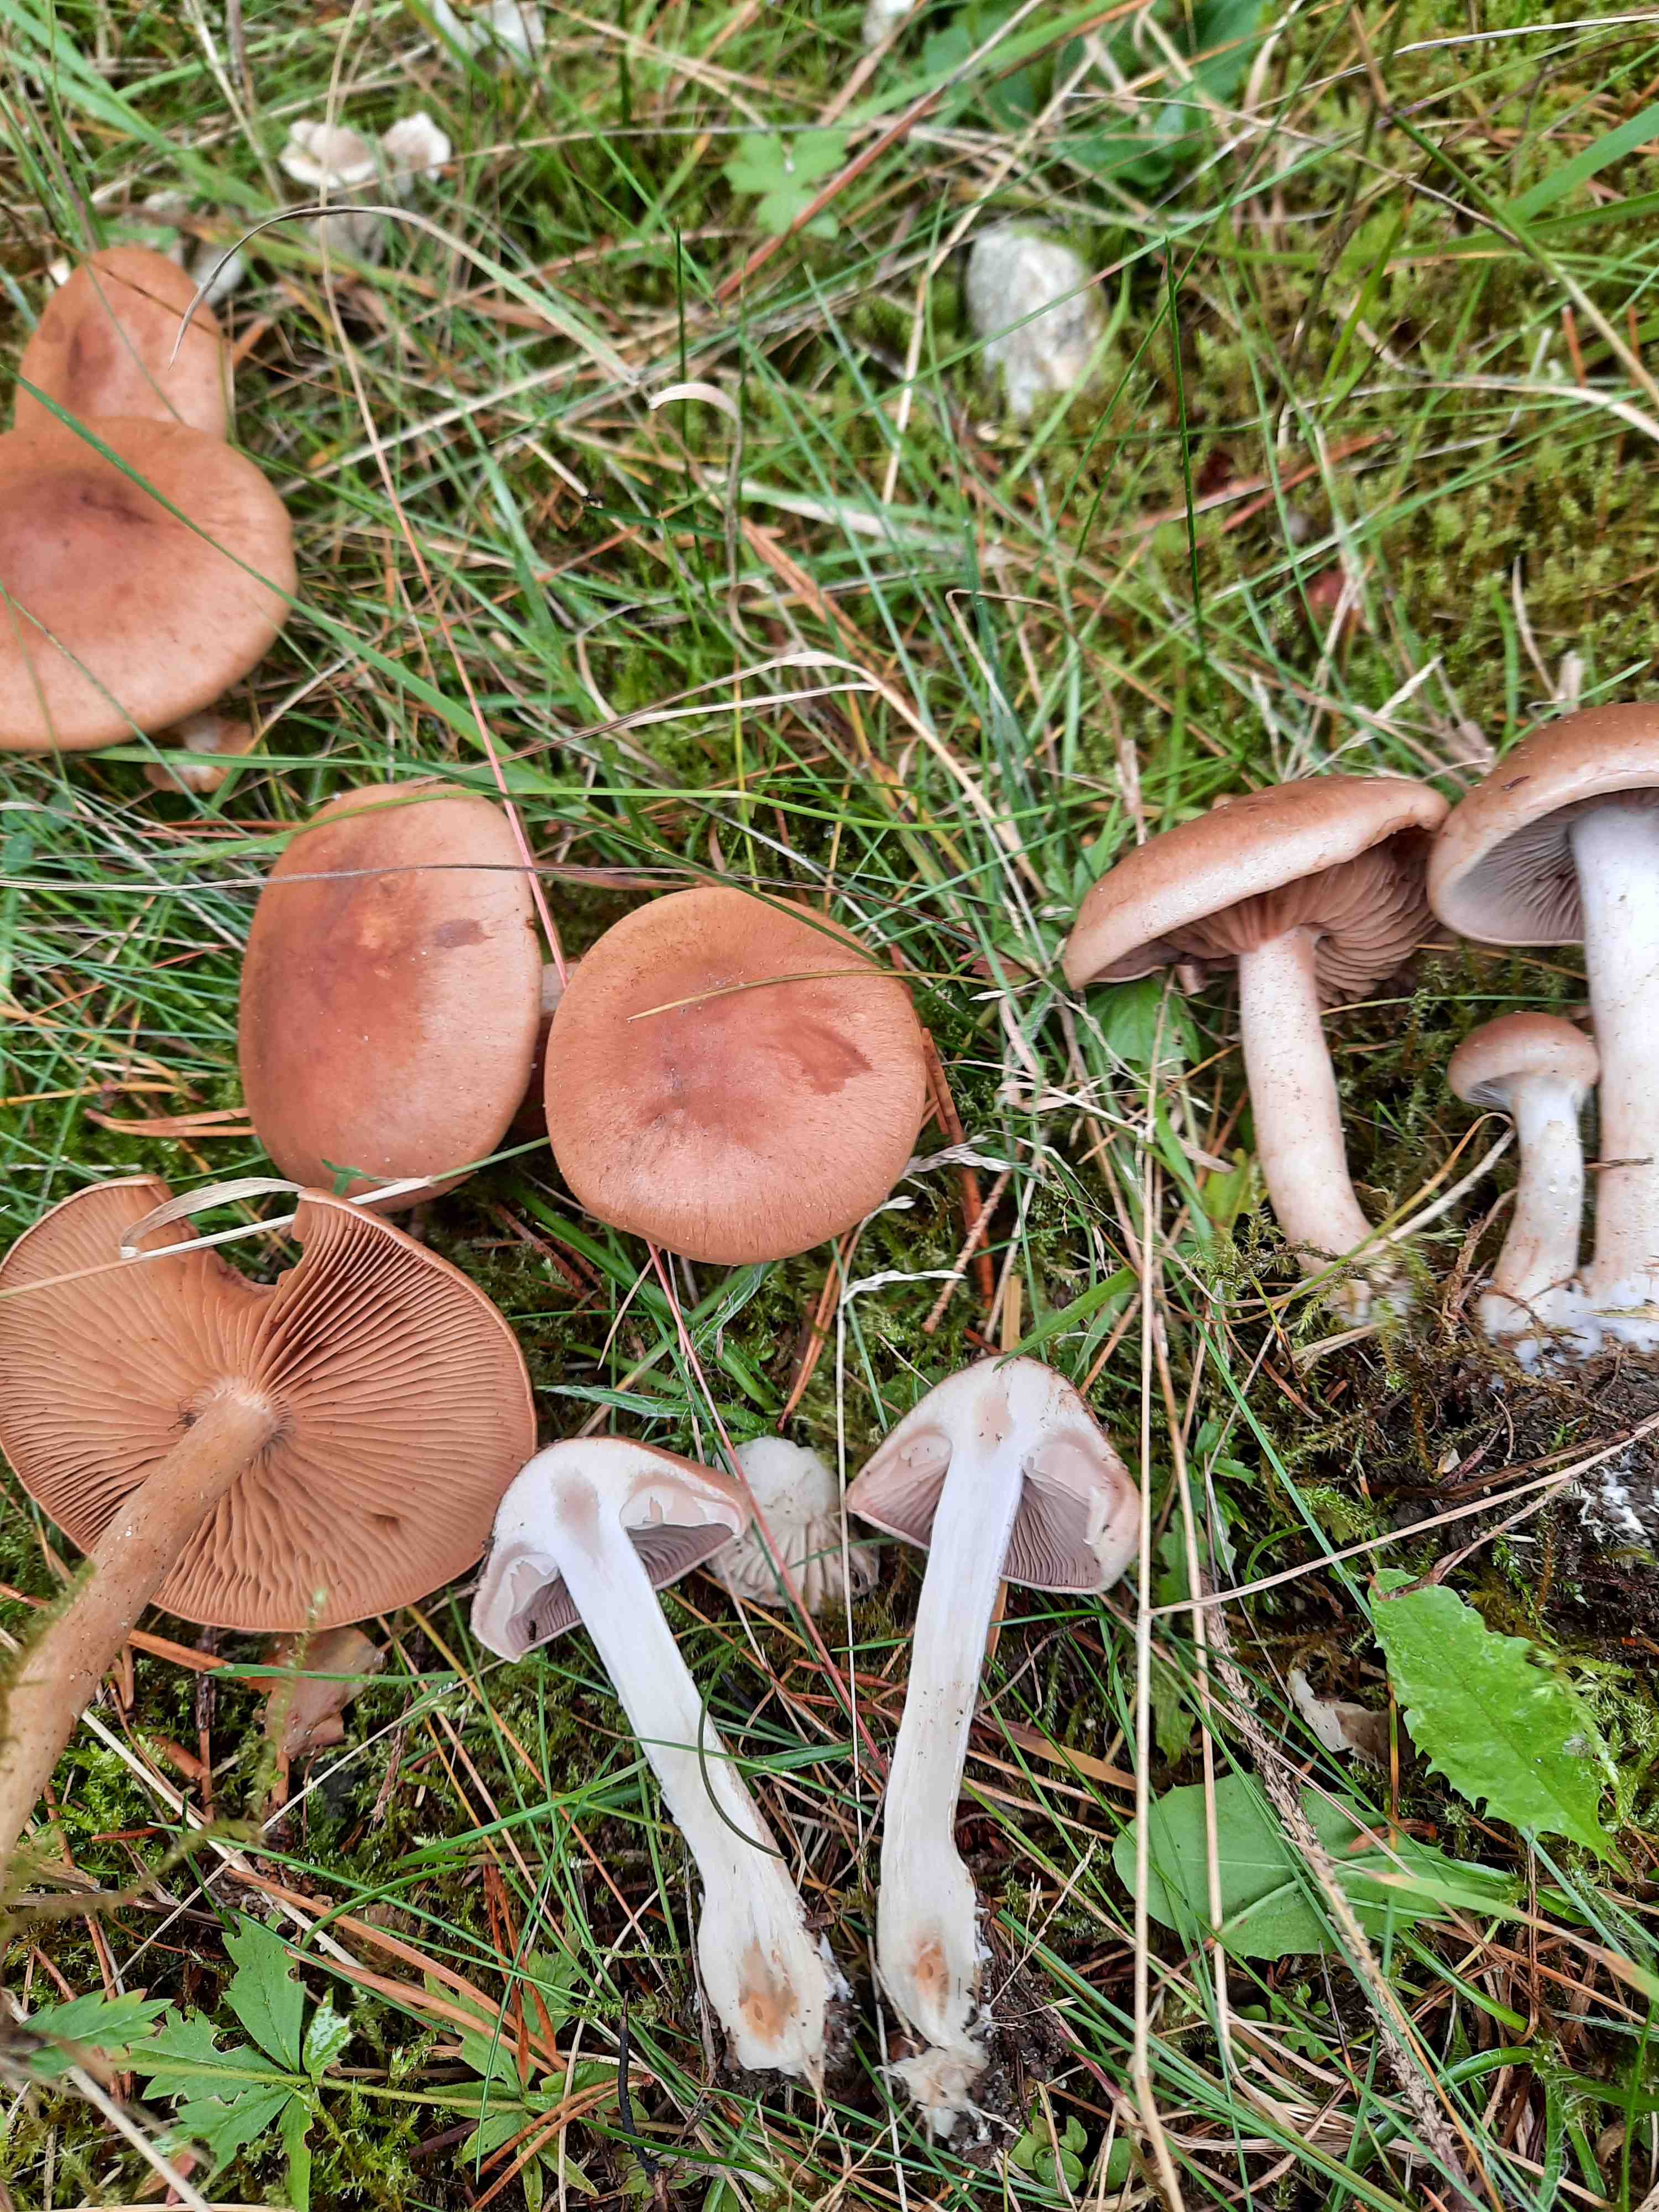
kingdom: Fungi
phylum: Basidiomycota
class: Agaricomycetes
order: Agaricales
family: Cortinariaceae
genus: Cortinarius
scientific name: Cortinarius
